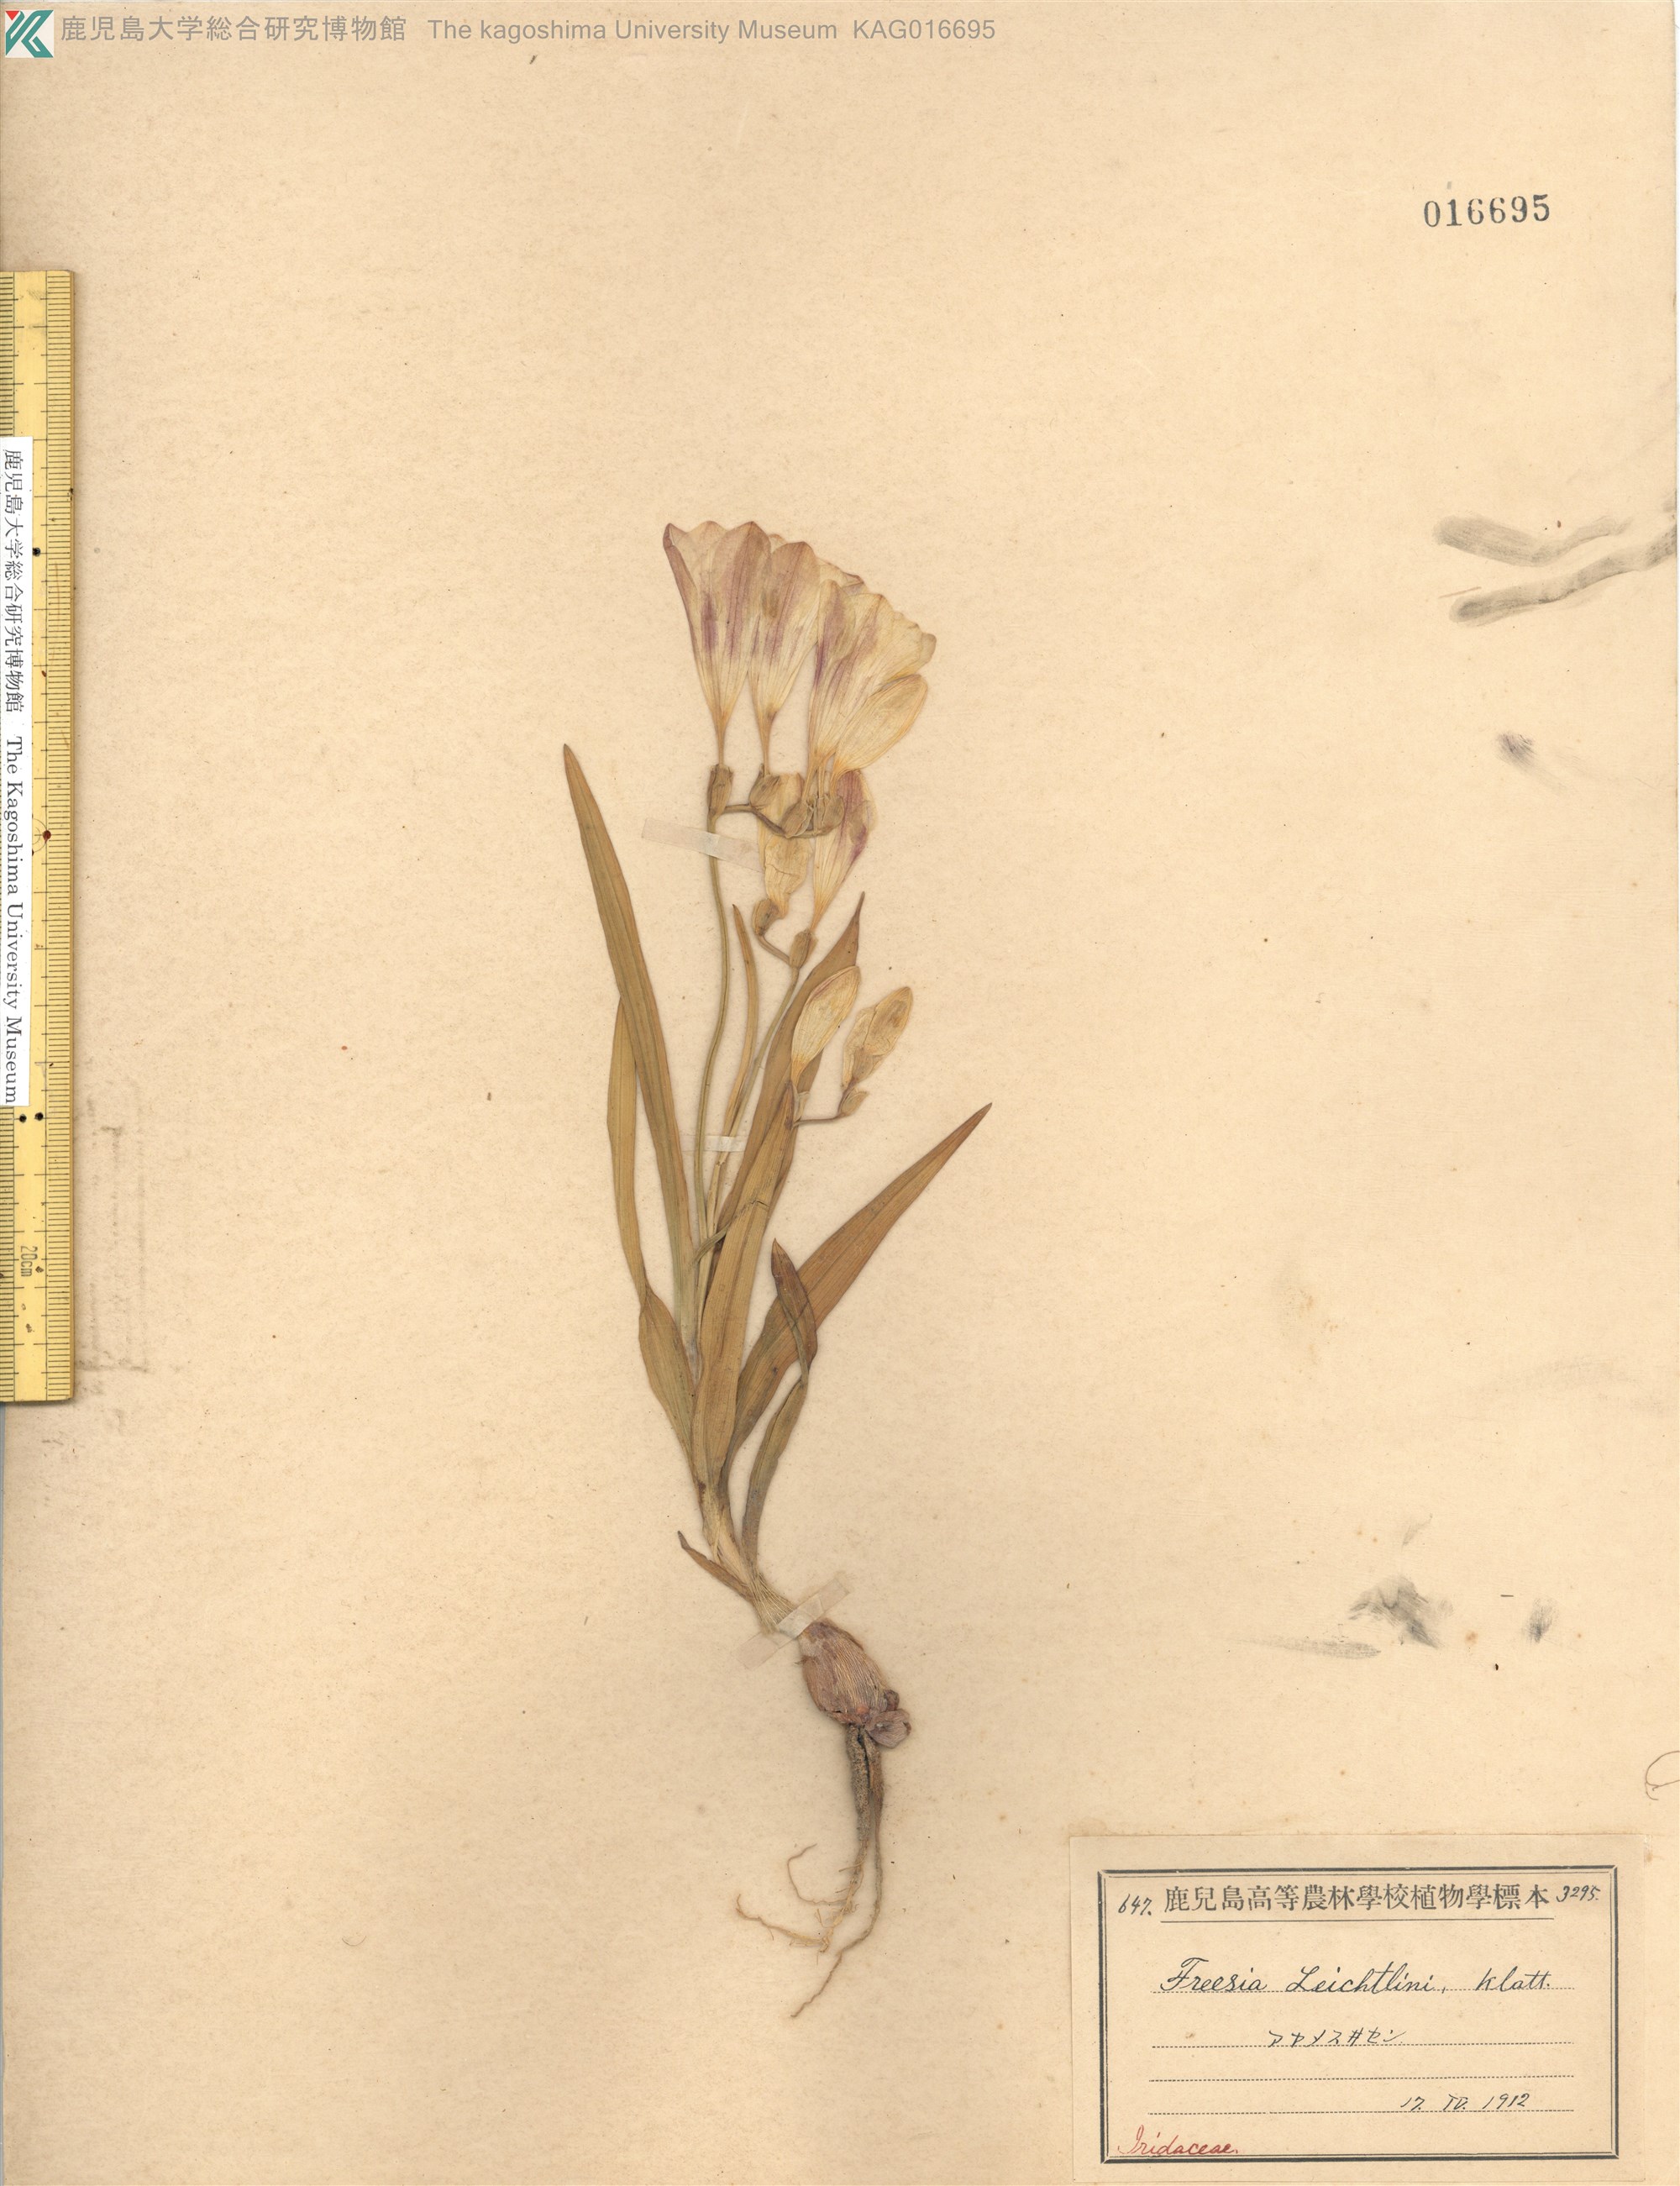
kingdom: Plantae
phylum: Tracheophyta
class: Liliopsida
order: Asparagales
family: Iridaceae
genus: Freesia
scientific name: Freesia refracta
